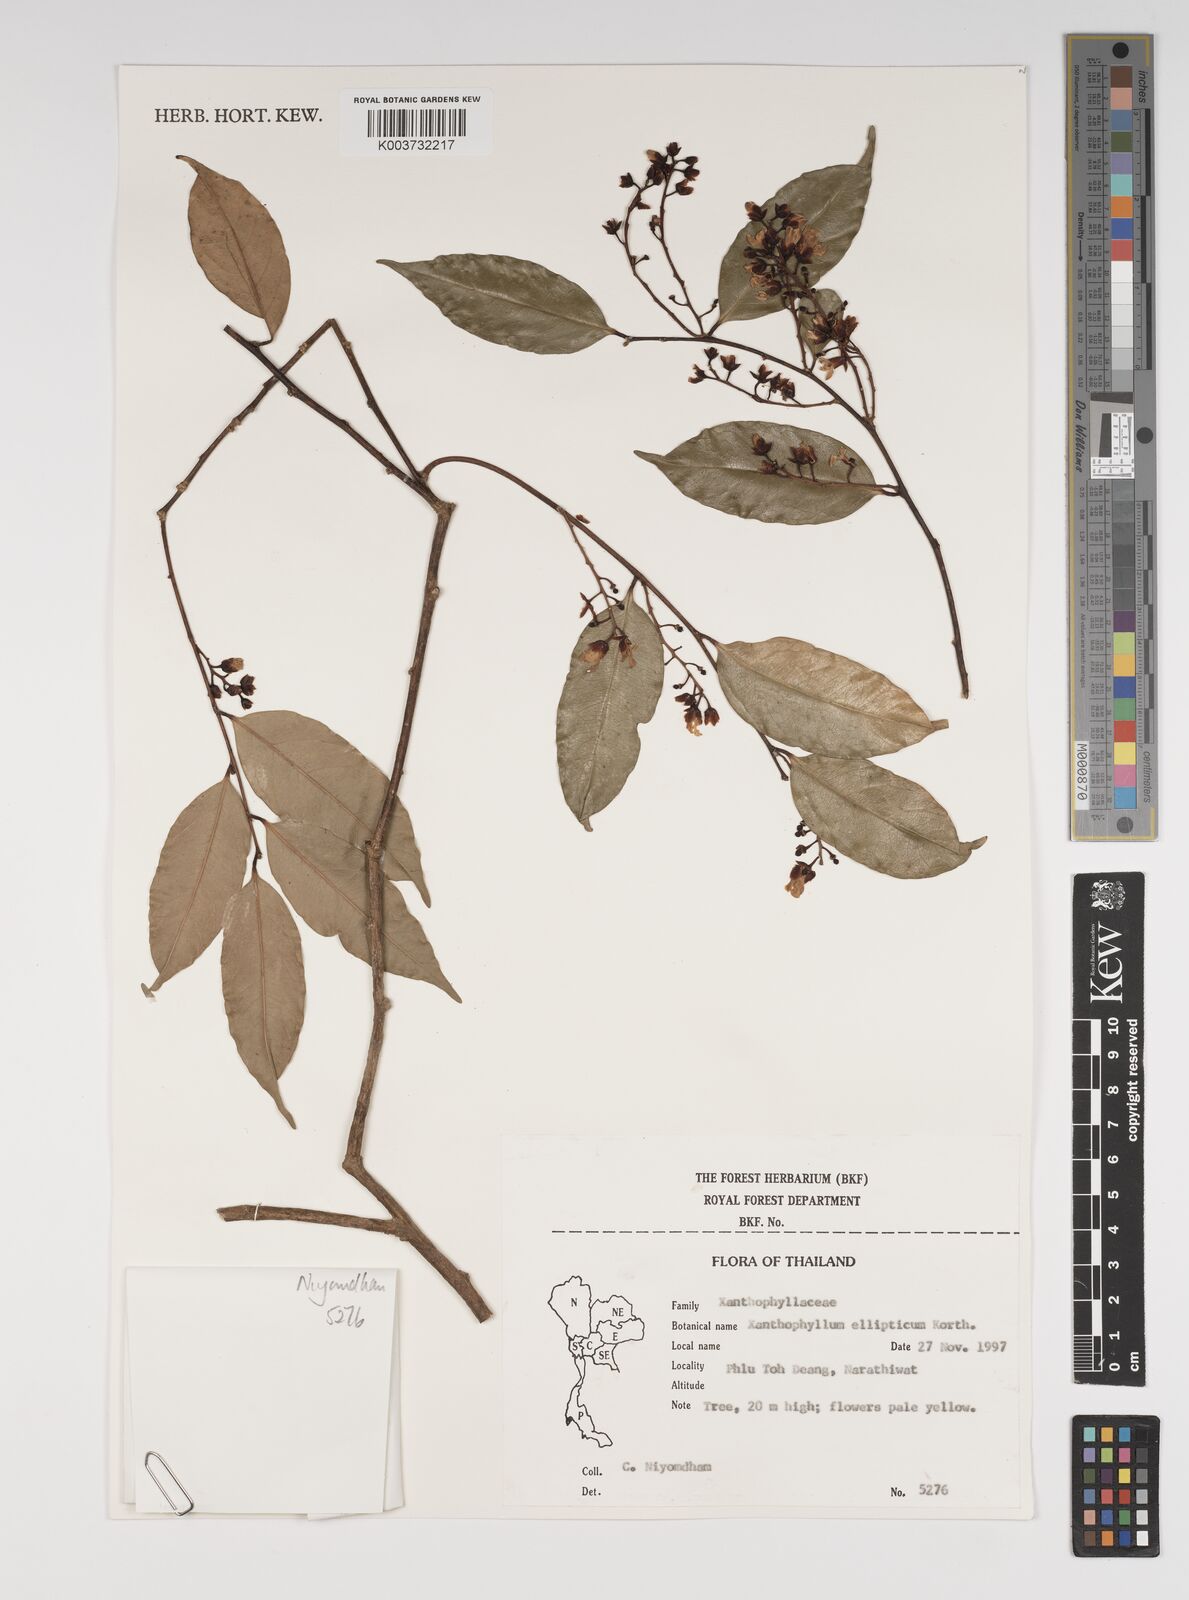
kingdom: Plantae
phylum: Tracheophyta
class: Magnoliopsida
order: Fabales
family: Polygalaceae
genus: Xanthophyllum
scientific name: Xanthophyllum ellipticum
